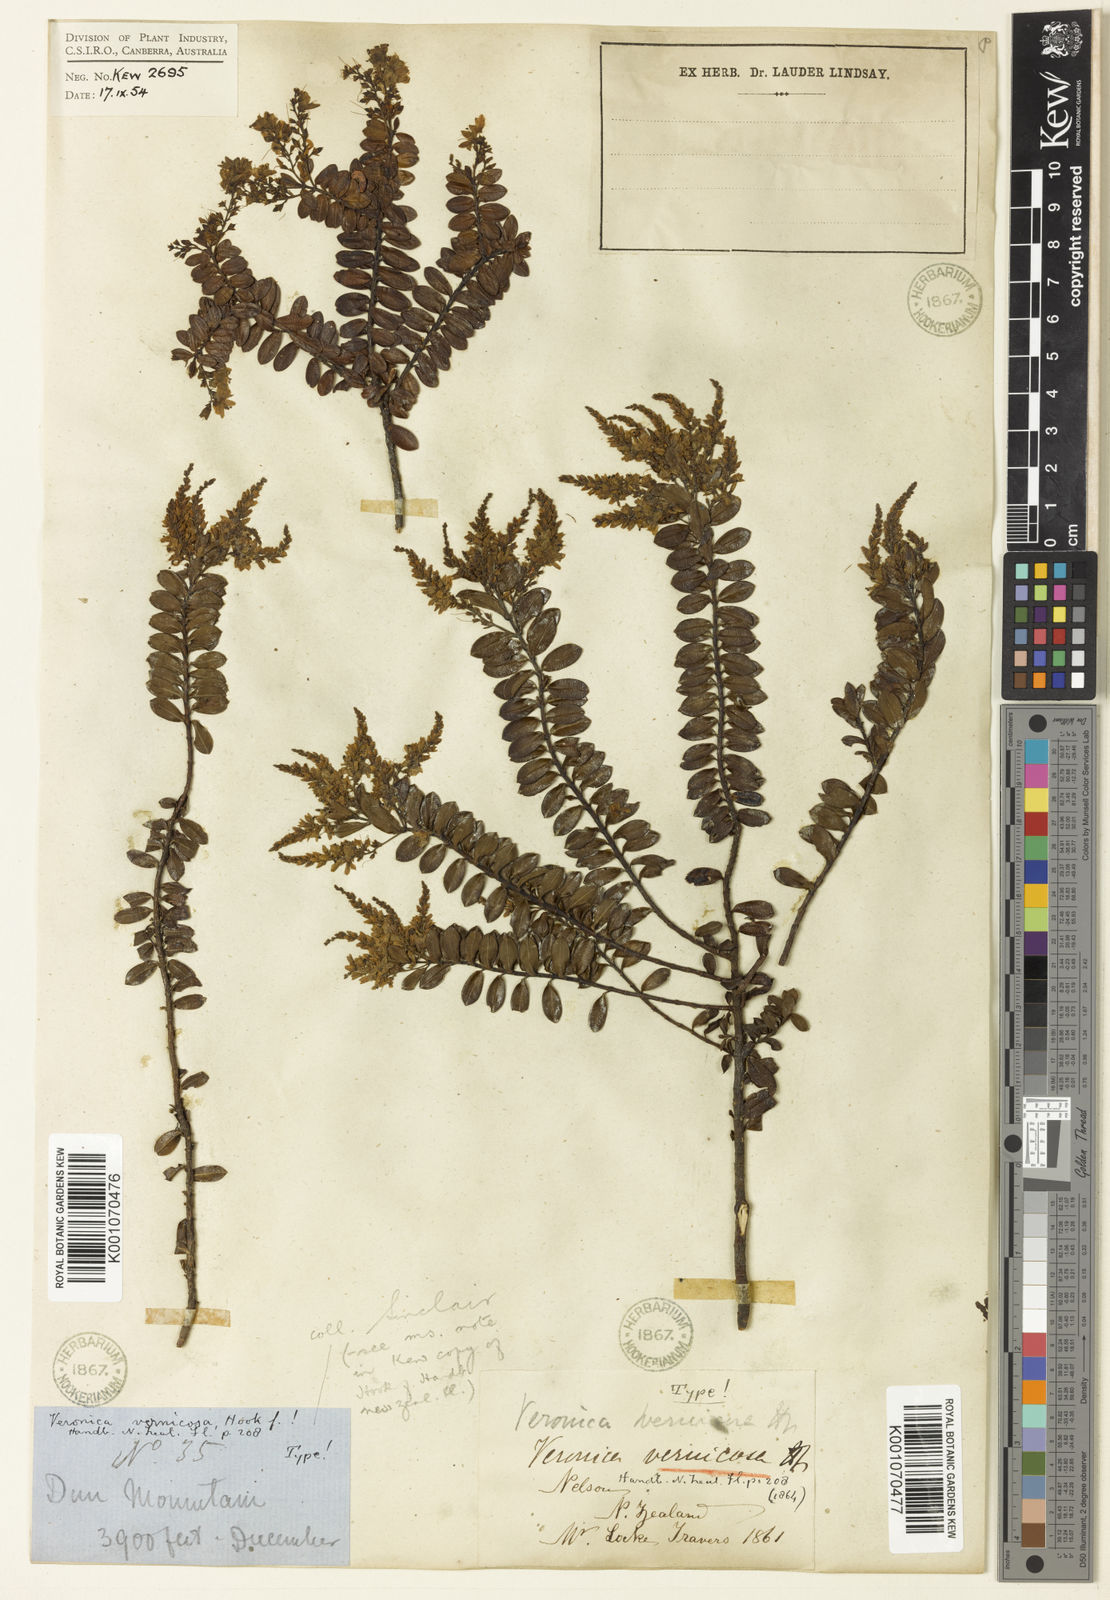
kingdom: Plantae
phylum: Tracheophyta
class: Magnoliopsida
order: Lamiales
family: Plantaginaceae
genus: Veronica
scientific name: Veronica vernicosa
